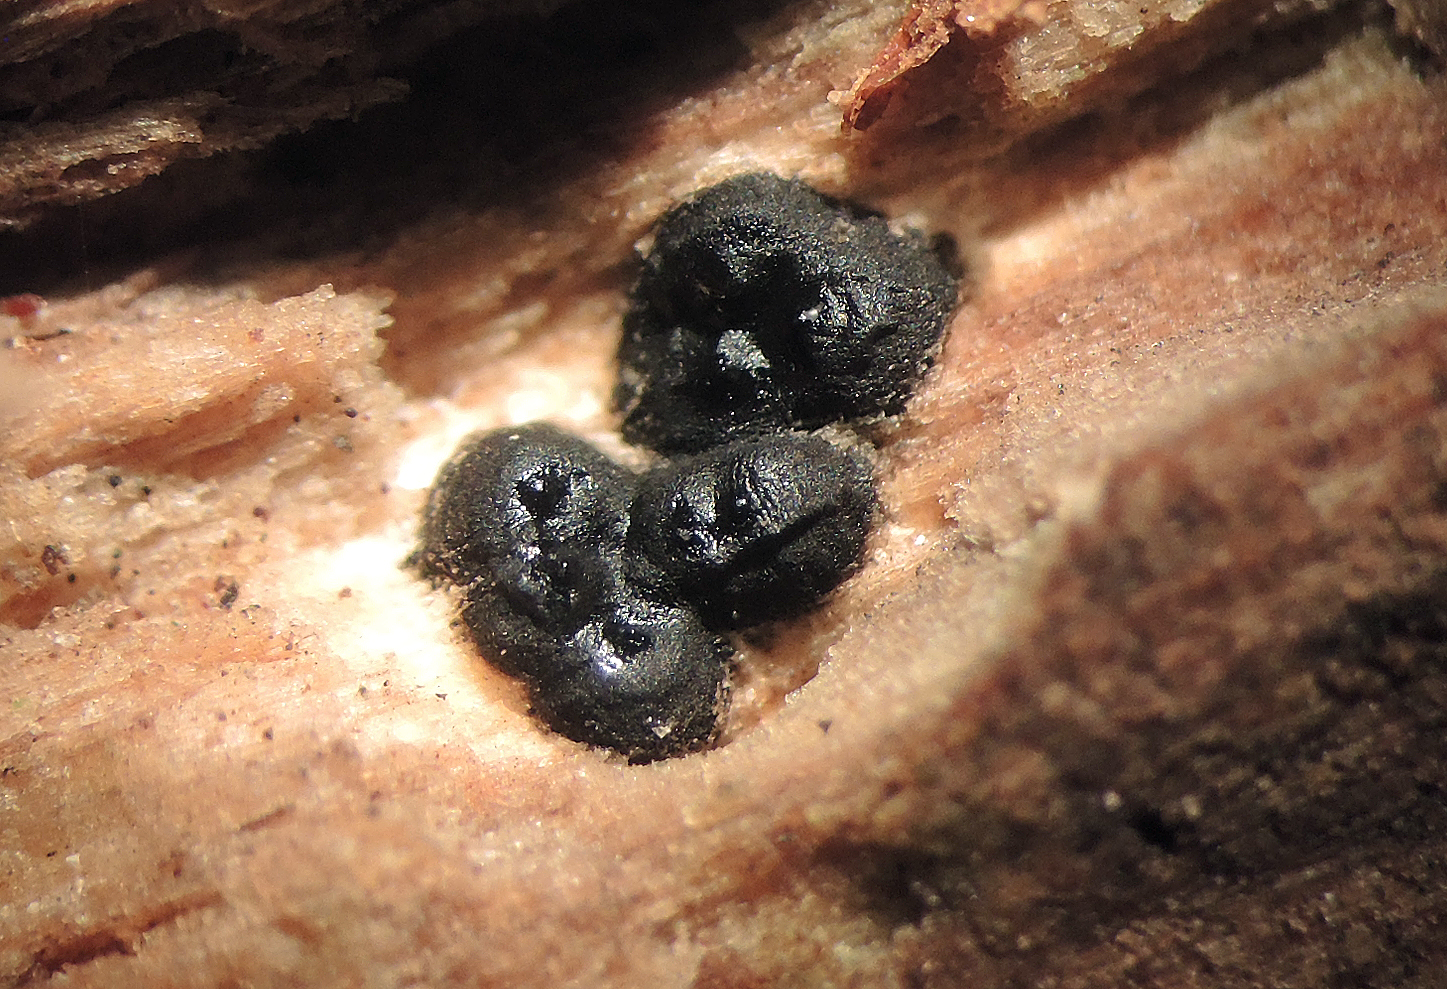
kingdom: Fungi
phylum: Ascomycota
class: Sordariomycetes
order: Xylariales
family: Xylariaceae
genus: Nemania
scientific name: Nemania confluens
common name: indsænket kuldyne
